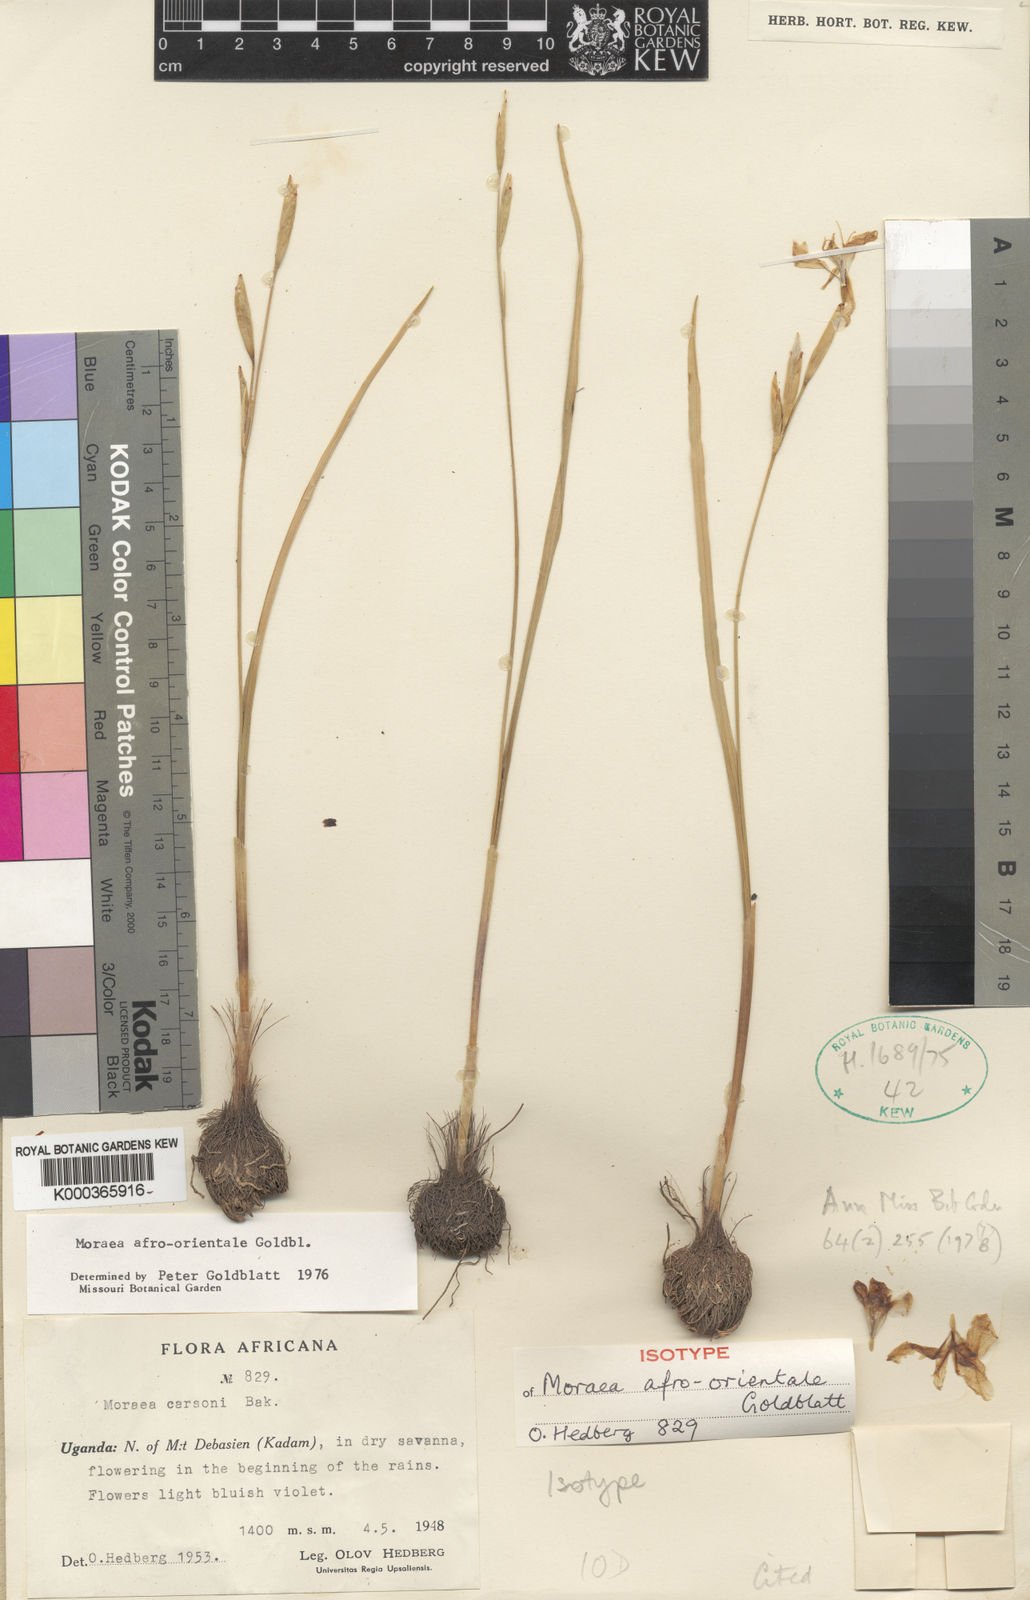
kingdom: Plantae
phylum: Tracheophyta
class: Liliopsida
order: Asparagales
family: Iridaceae
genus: Moraea
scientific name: Moraea
